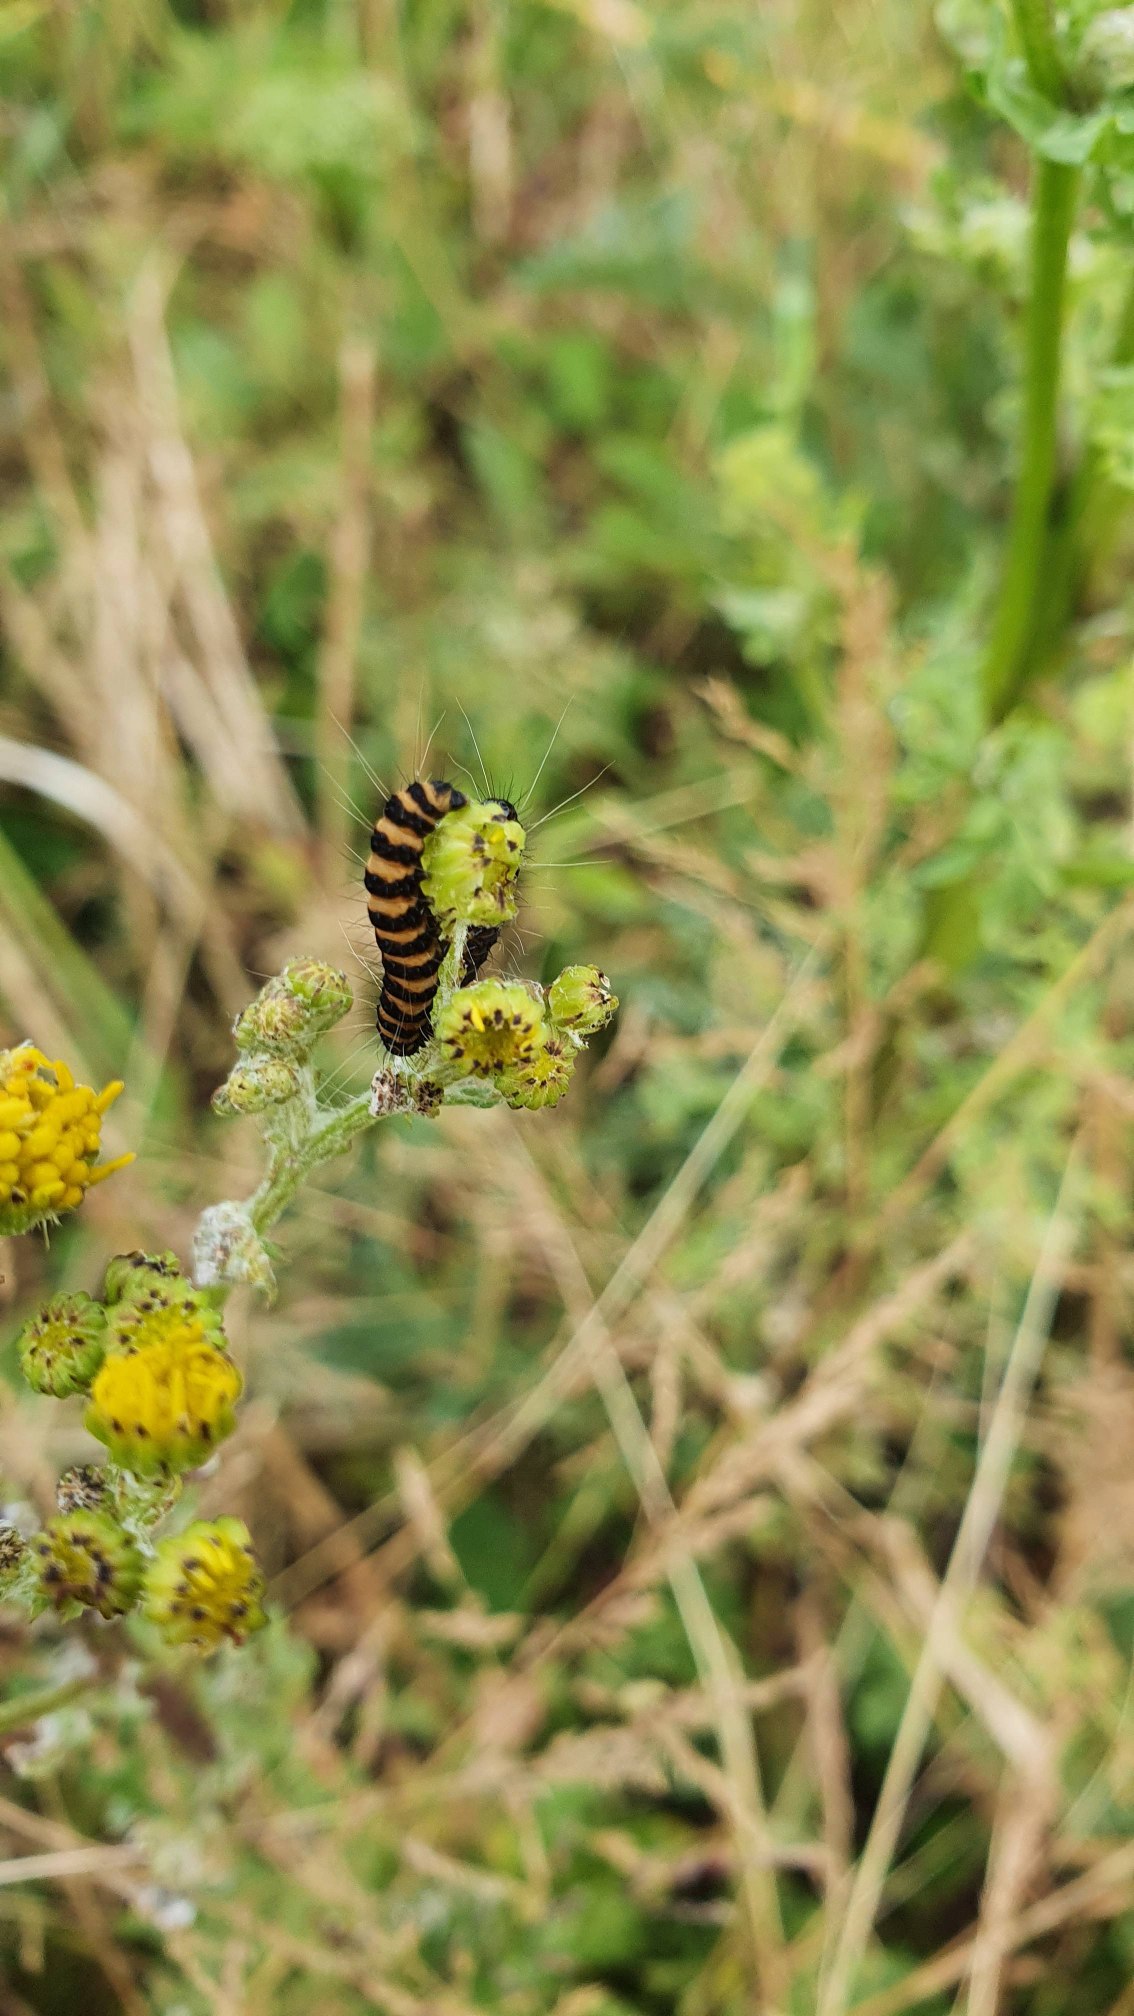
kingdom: Animalia
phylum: Arthropoda
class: Insecta
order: Lepidoptera
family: Erebidae
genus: Tyria
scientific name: Tyria jacobaeae
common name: Blodplet
